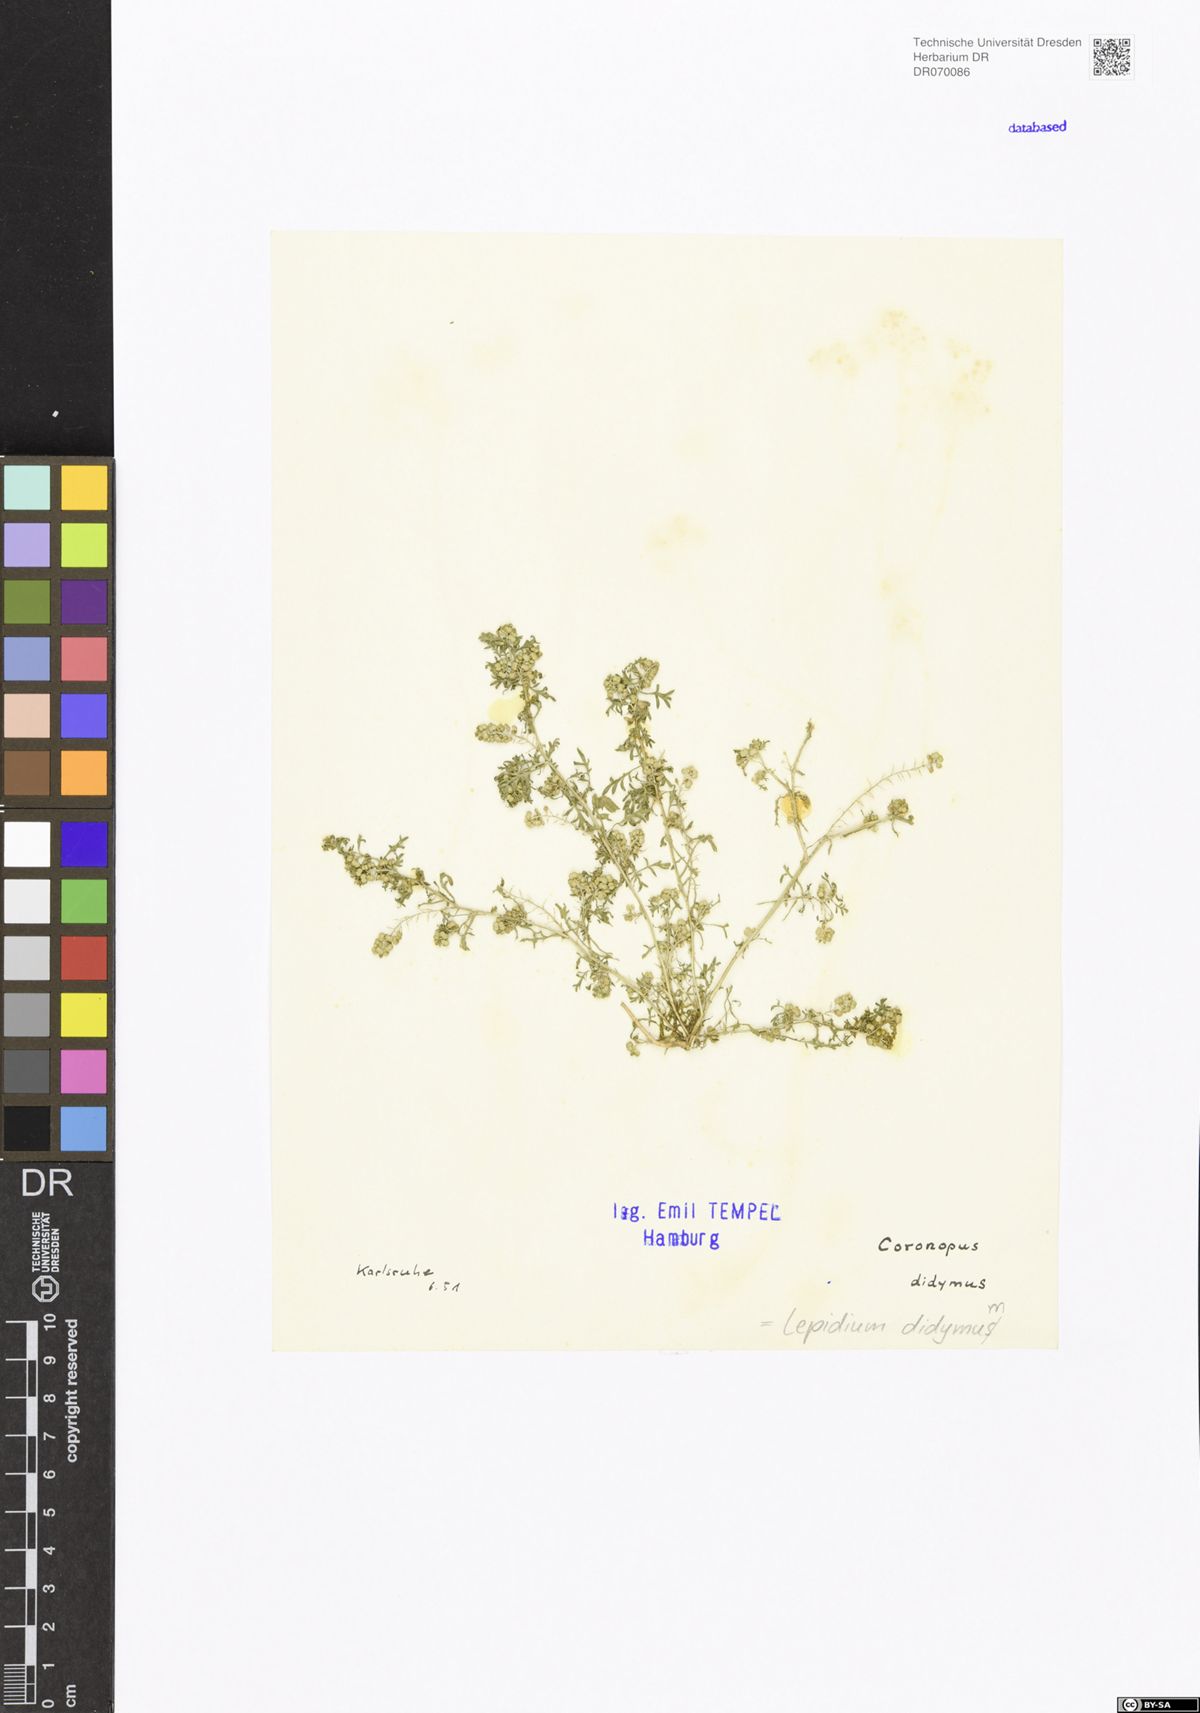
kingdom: Plantae
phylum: Tracheophyta
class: Magnoliopsida
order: Brassicales
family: Brassicaceae
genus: Lepidium
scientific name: Lepidium didymum
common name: Lesser swinecress
